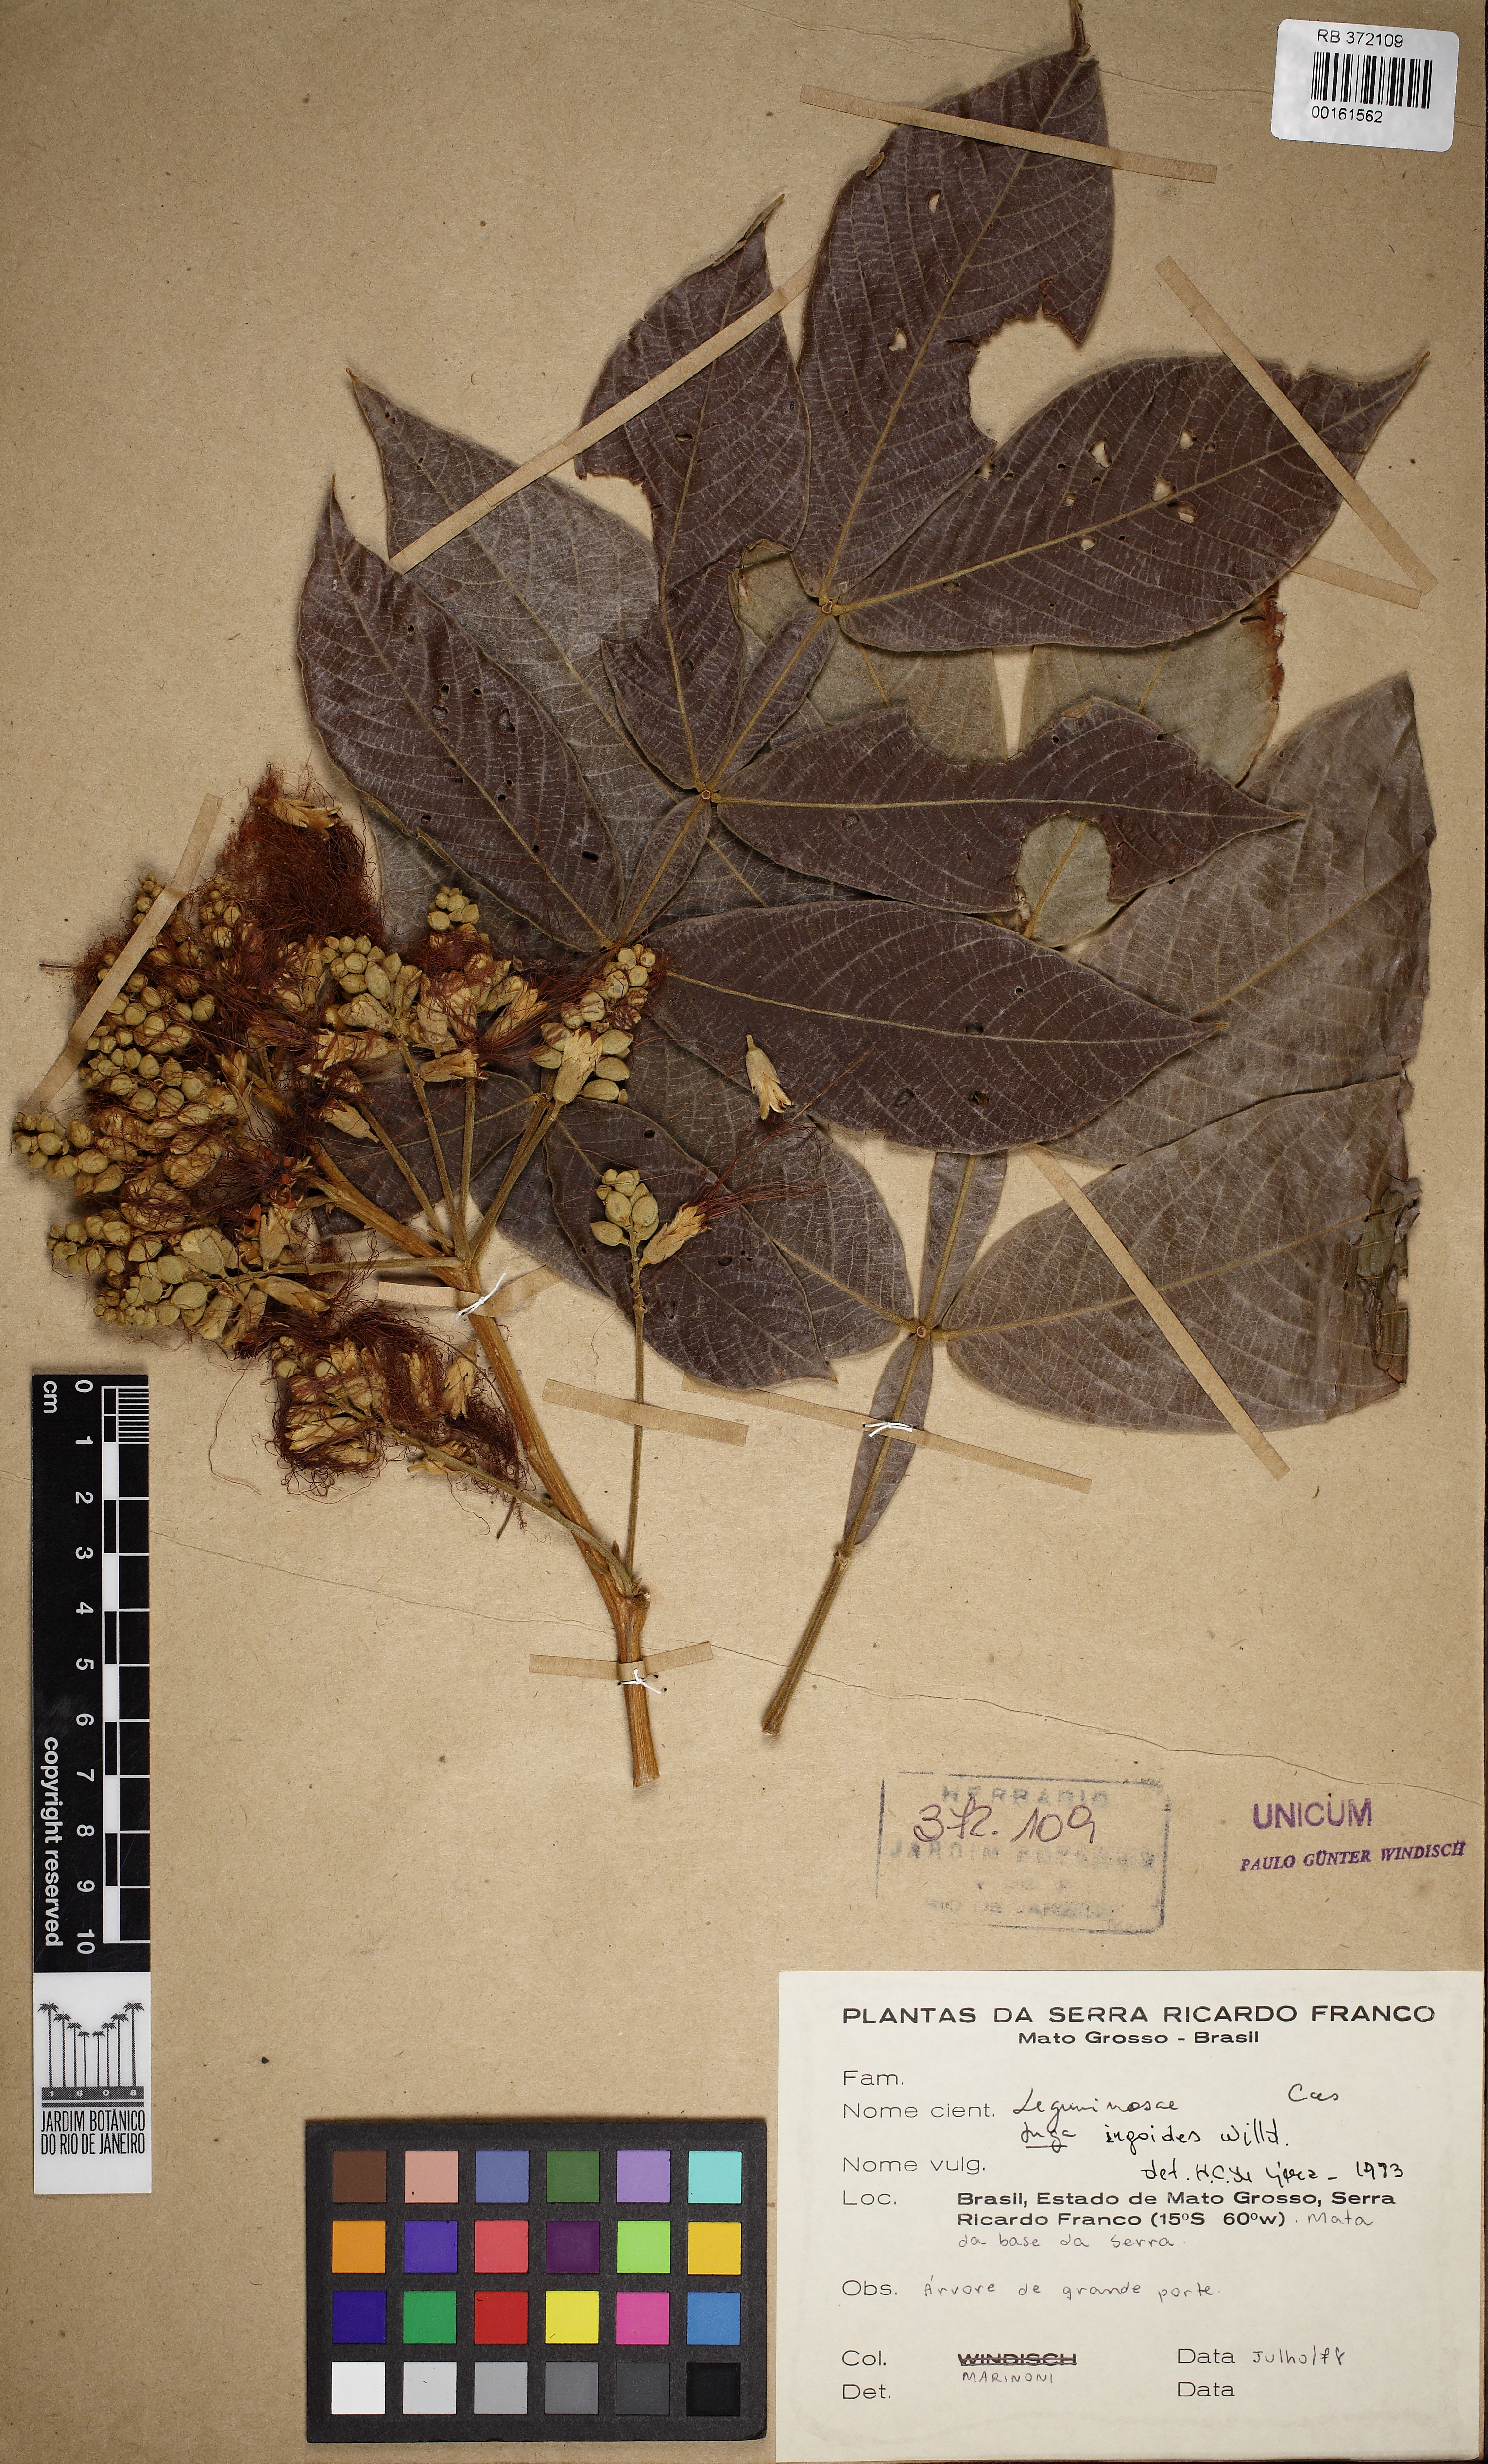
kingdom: Plantae
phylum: Tracheophyta
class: Magnoliopsida
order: Fabales
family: Fabaceae
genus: Inga
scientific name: Inga ingoides
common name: Spanish ash
